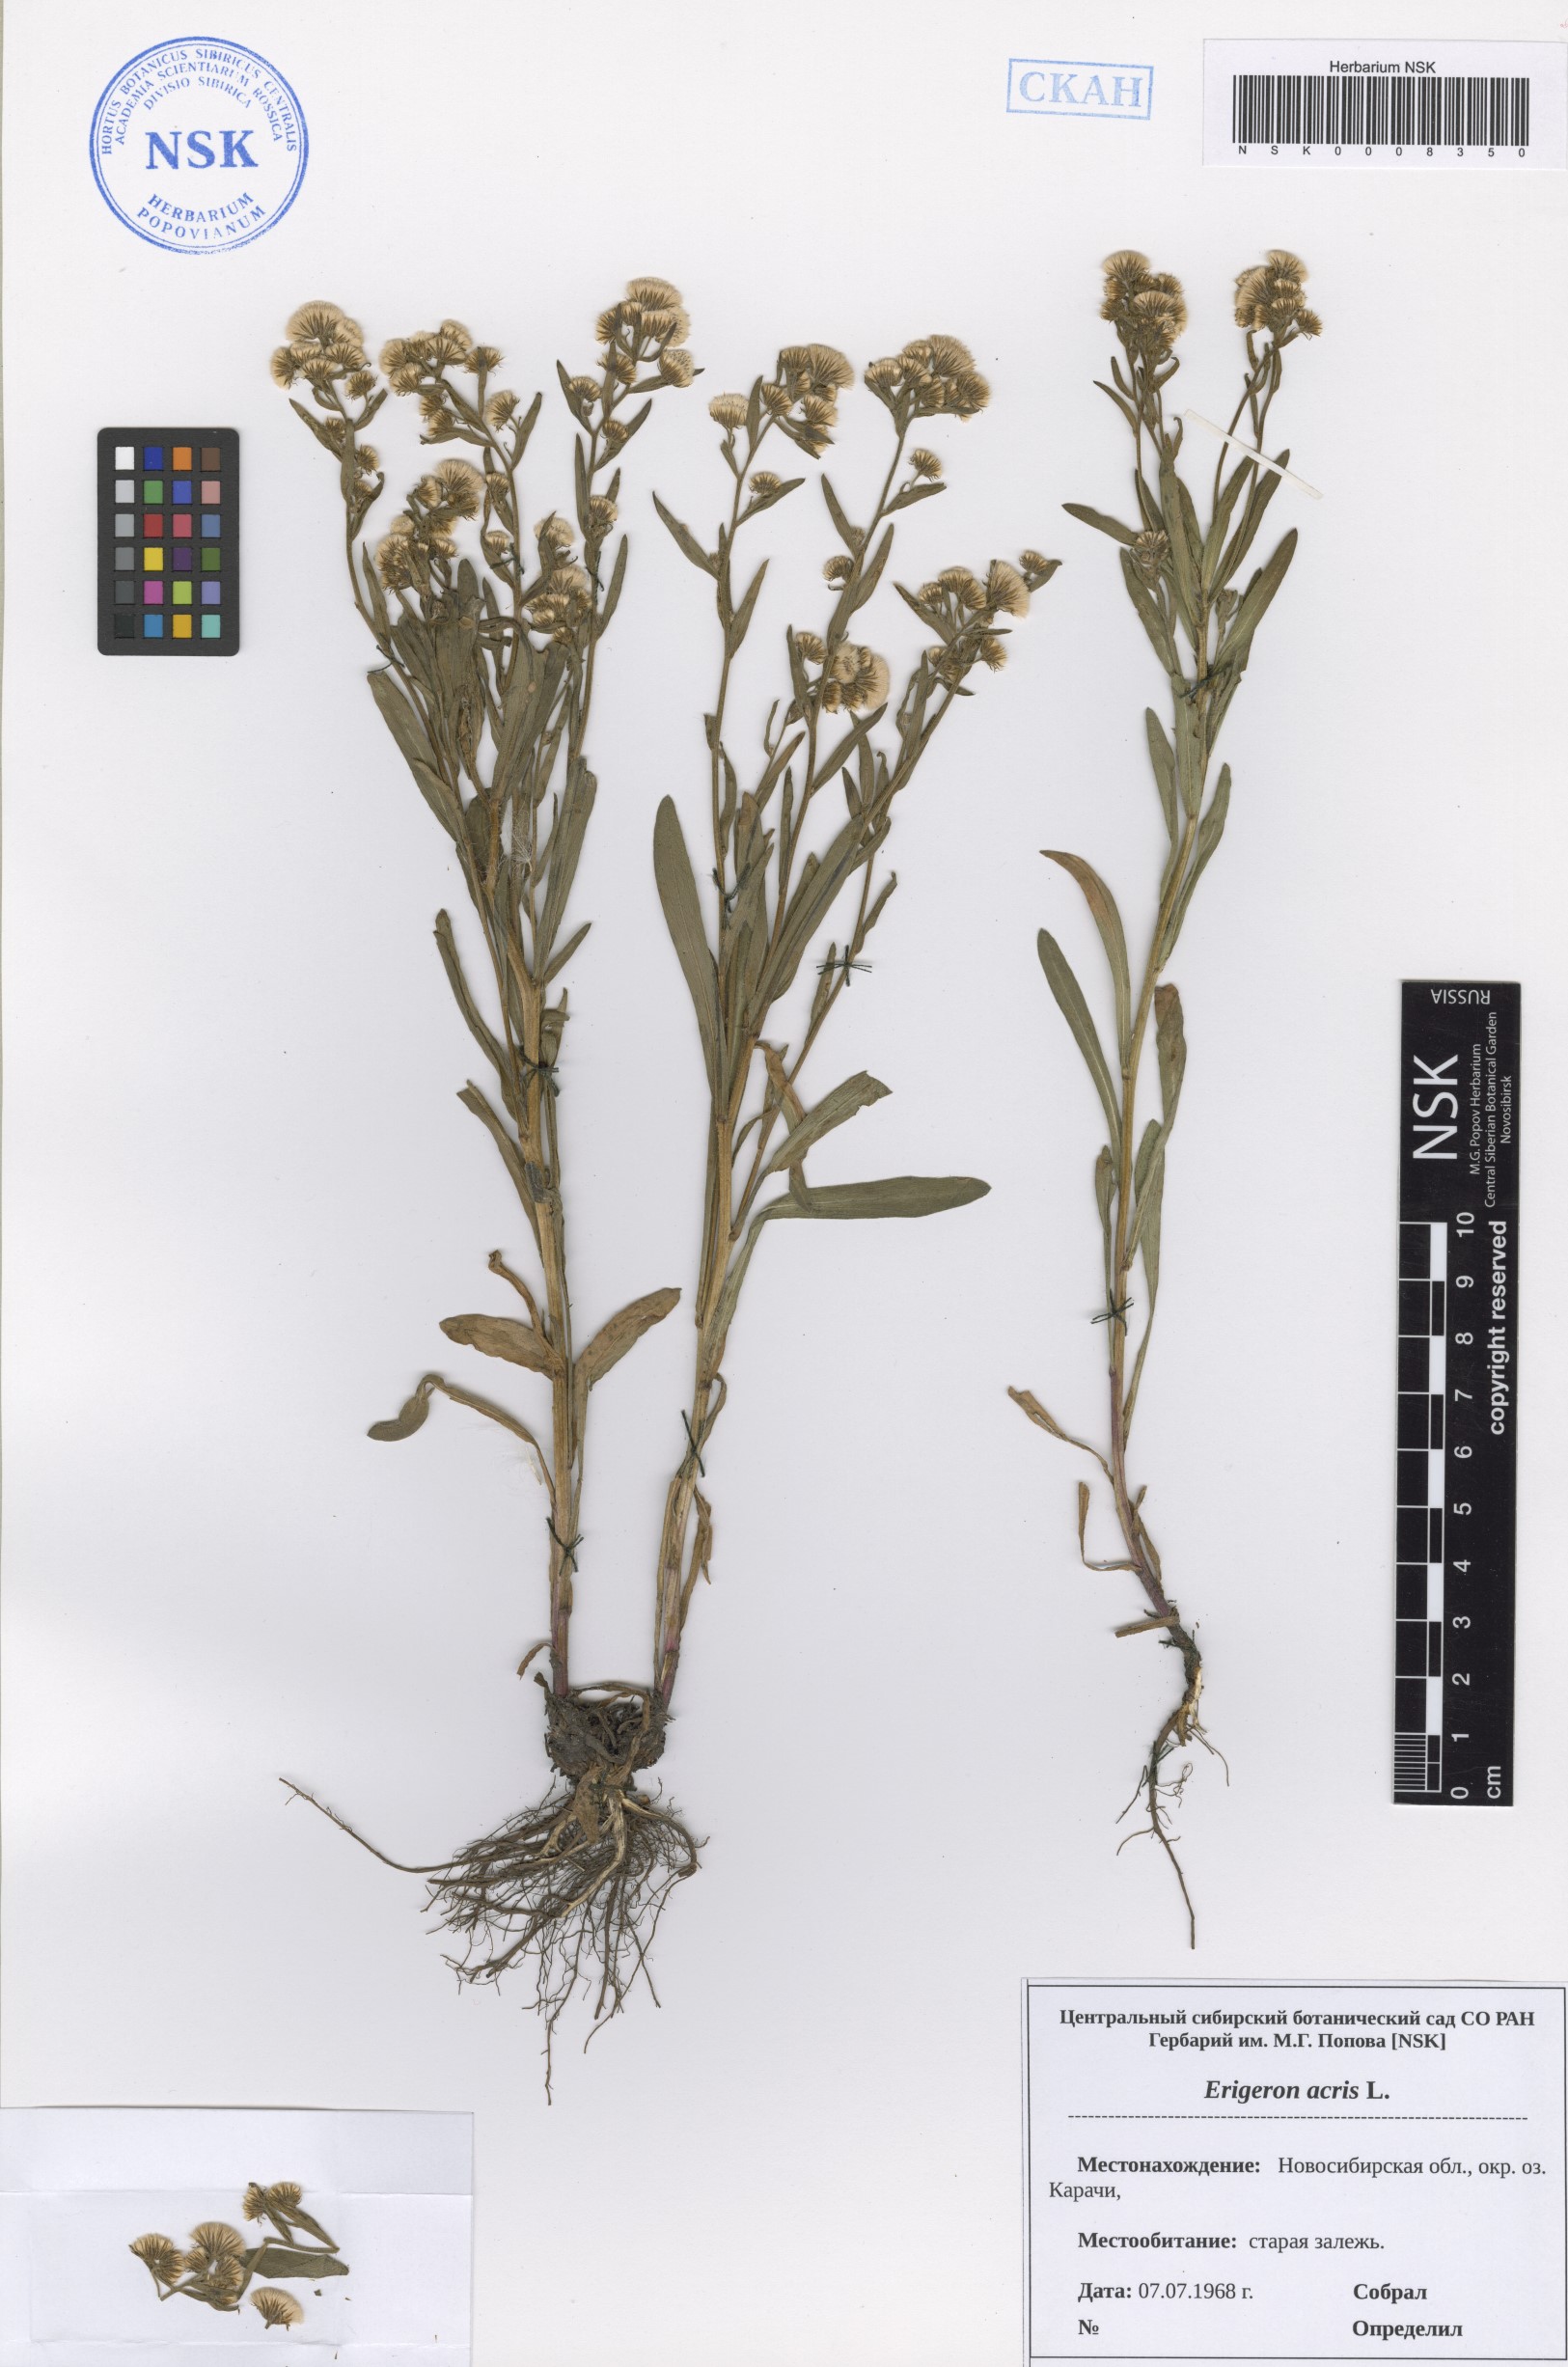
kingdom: Plantae
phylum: Tracheophyta
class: Magnoliopsida
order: Asterales
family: Asteraceae
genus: Erigeron
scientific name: Erigeron acris
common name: Blue fleabane
